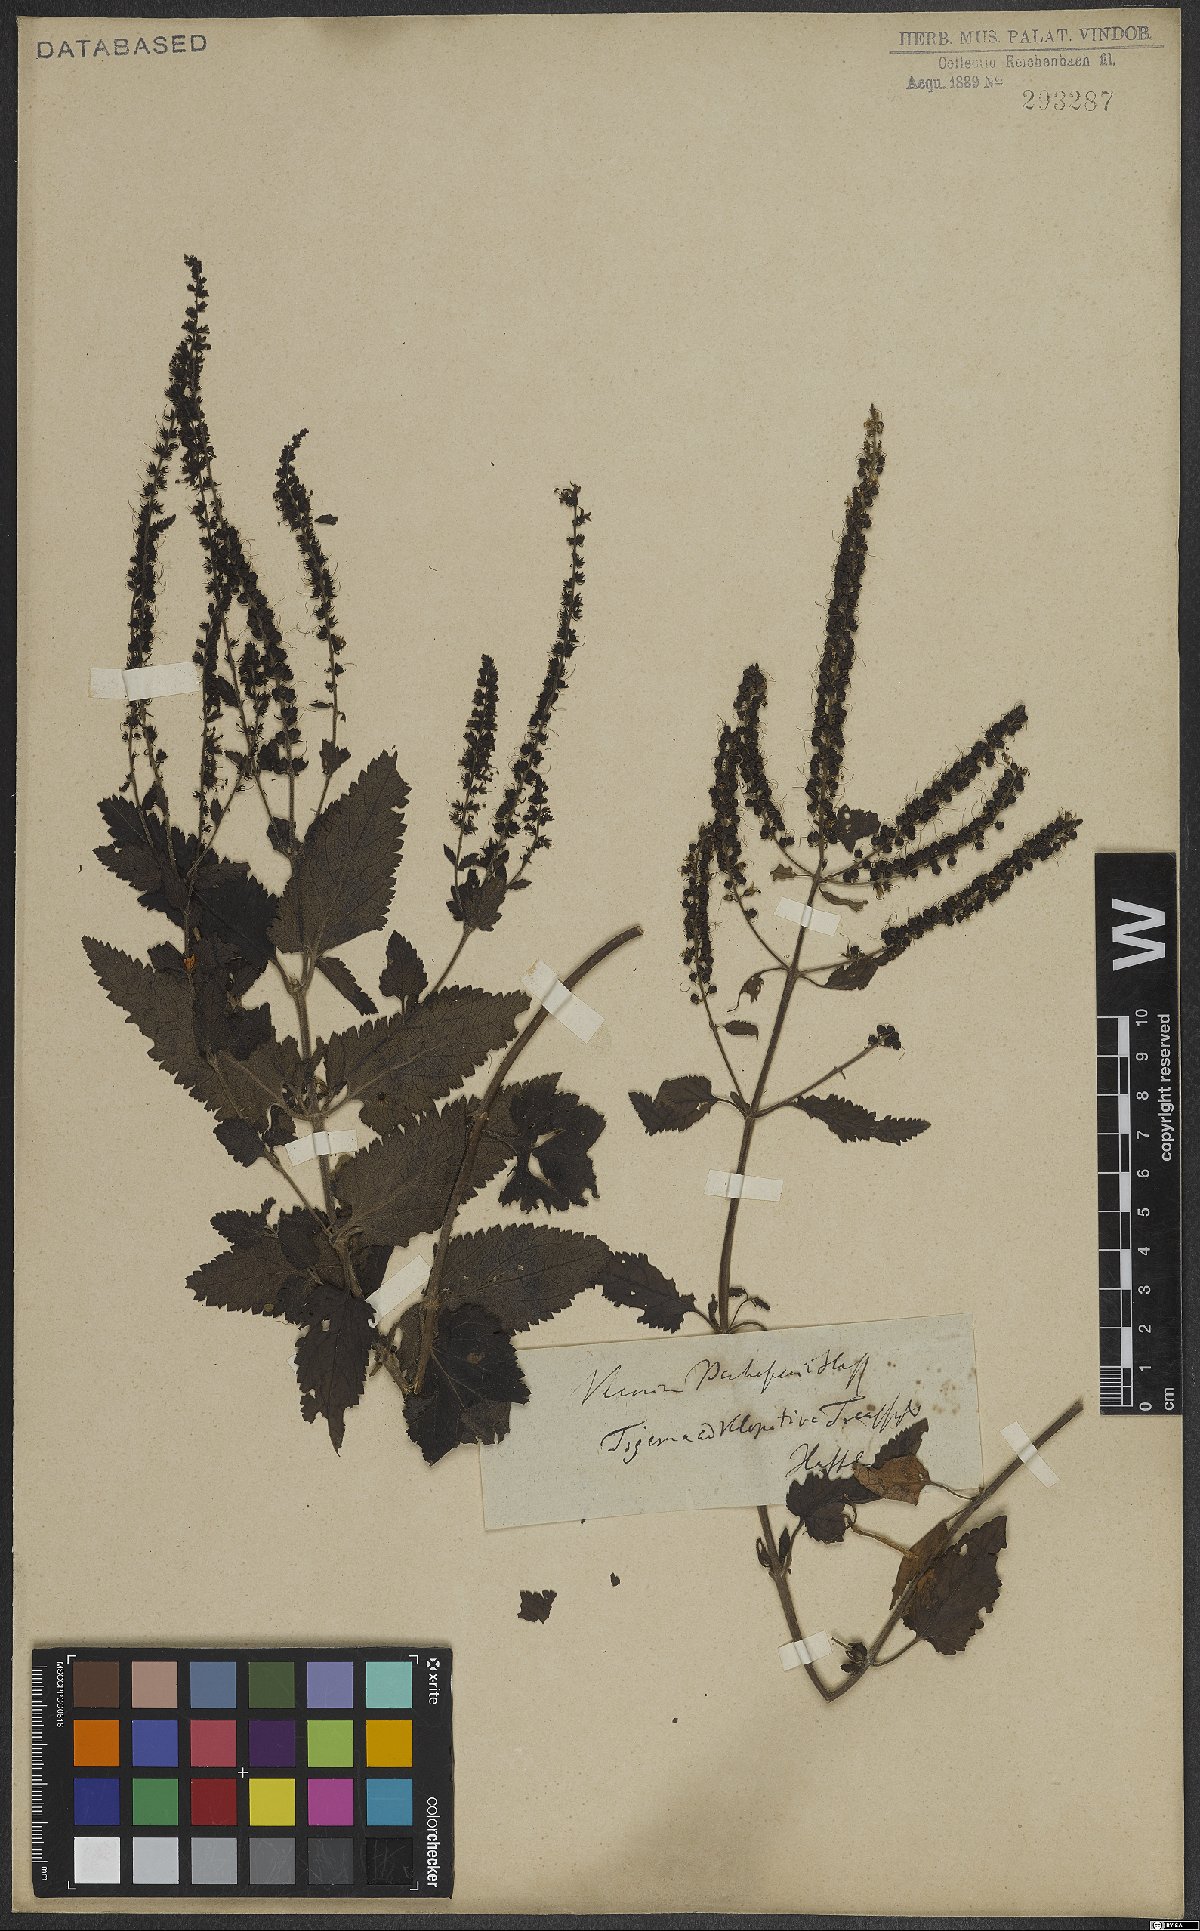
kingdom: Plantae
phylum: Tracheophyta
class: Magnoliopsida
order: Lamiales
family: Plantaginaceae
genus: Veronica
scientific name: Veronica bachofenii
